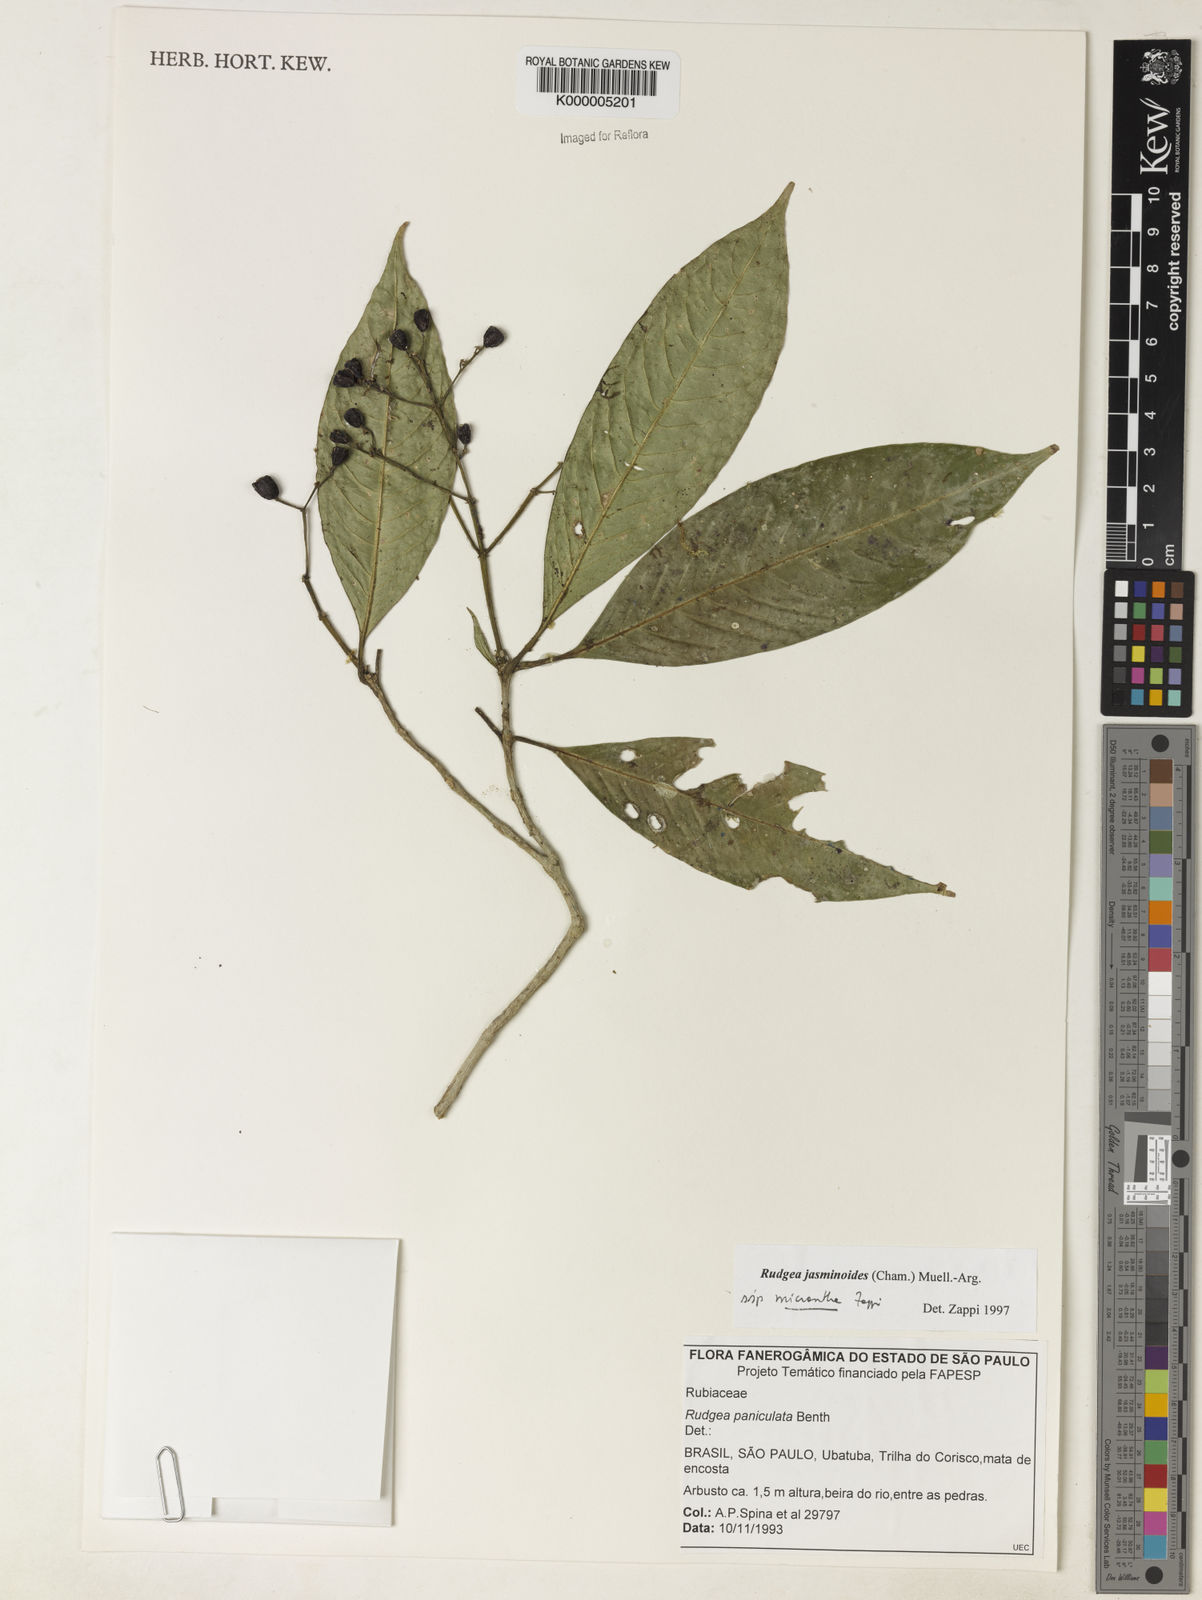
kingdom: Plantae
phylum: Tracheophyta
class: Magnoliopsida
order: Gentianales
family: Rubiaceae
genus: Rudgea
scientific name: Rudgea jasminoides
